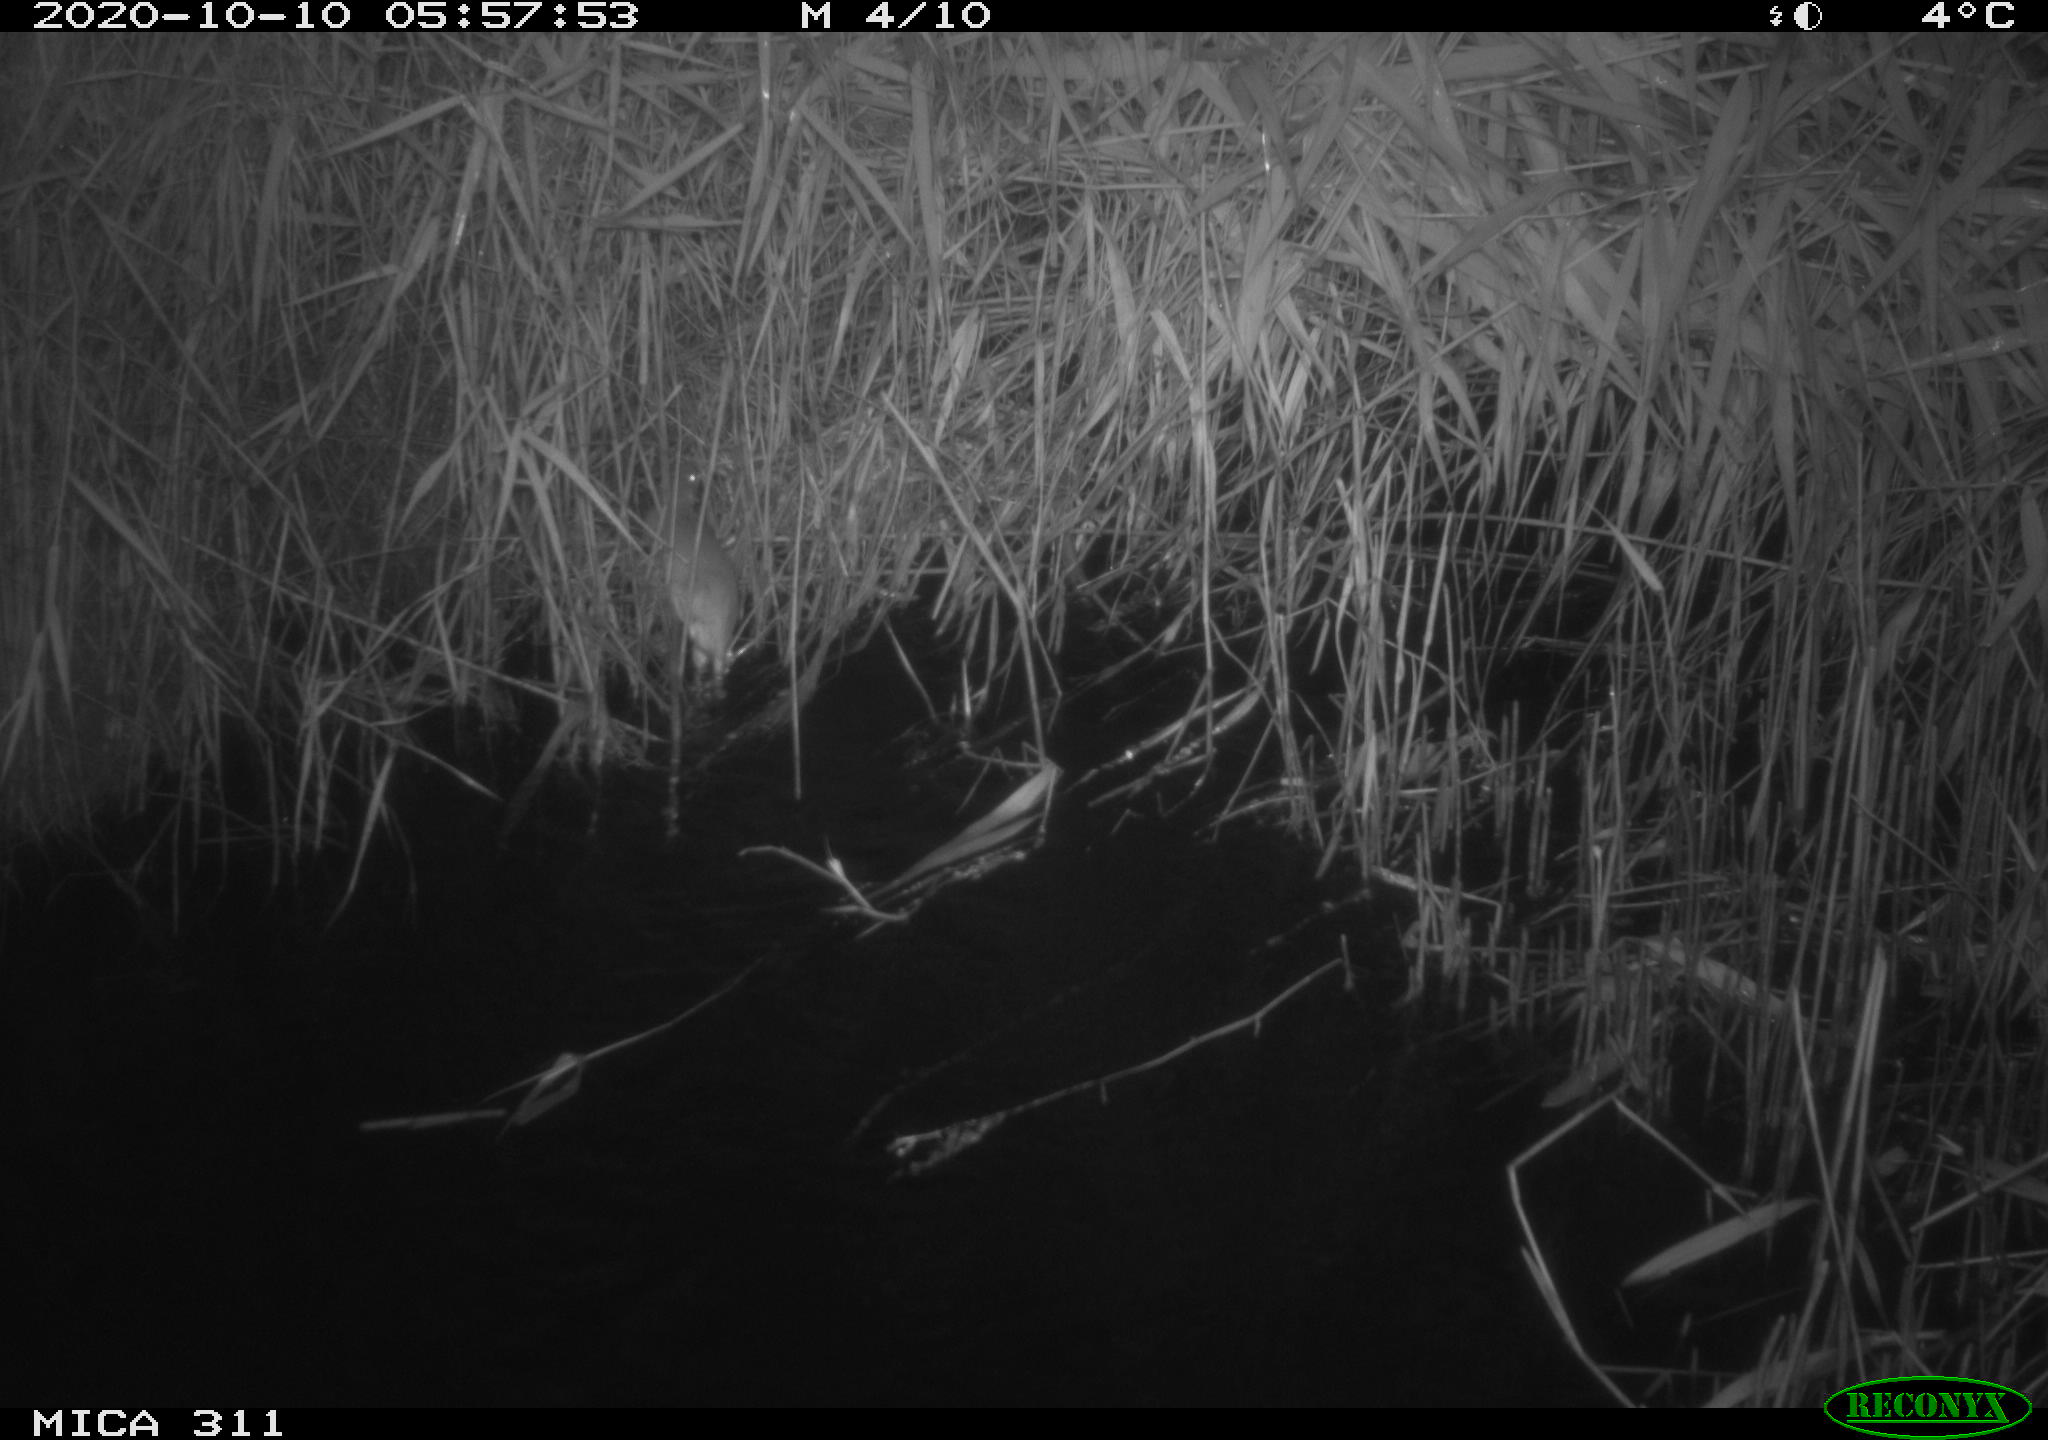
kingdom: Animalia
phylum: Chordata
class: Mammalia
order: Rodentia
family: Muridae
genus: Rattus
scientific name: Rattus norvegicus
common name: Brown rat
